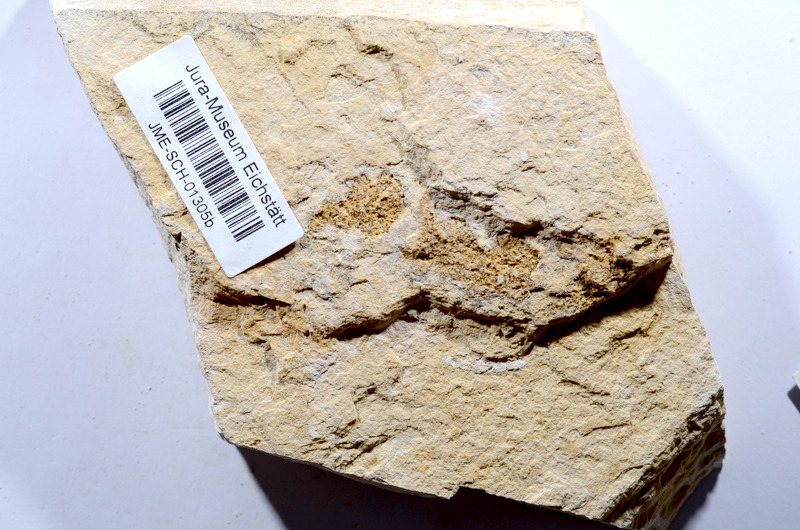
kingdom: Animalia
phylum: Chordata
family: Ascalaboidae
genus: Tharsis
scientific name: Tharsis dubius
